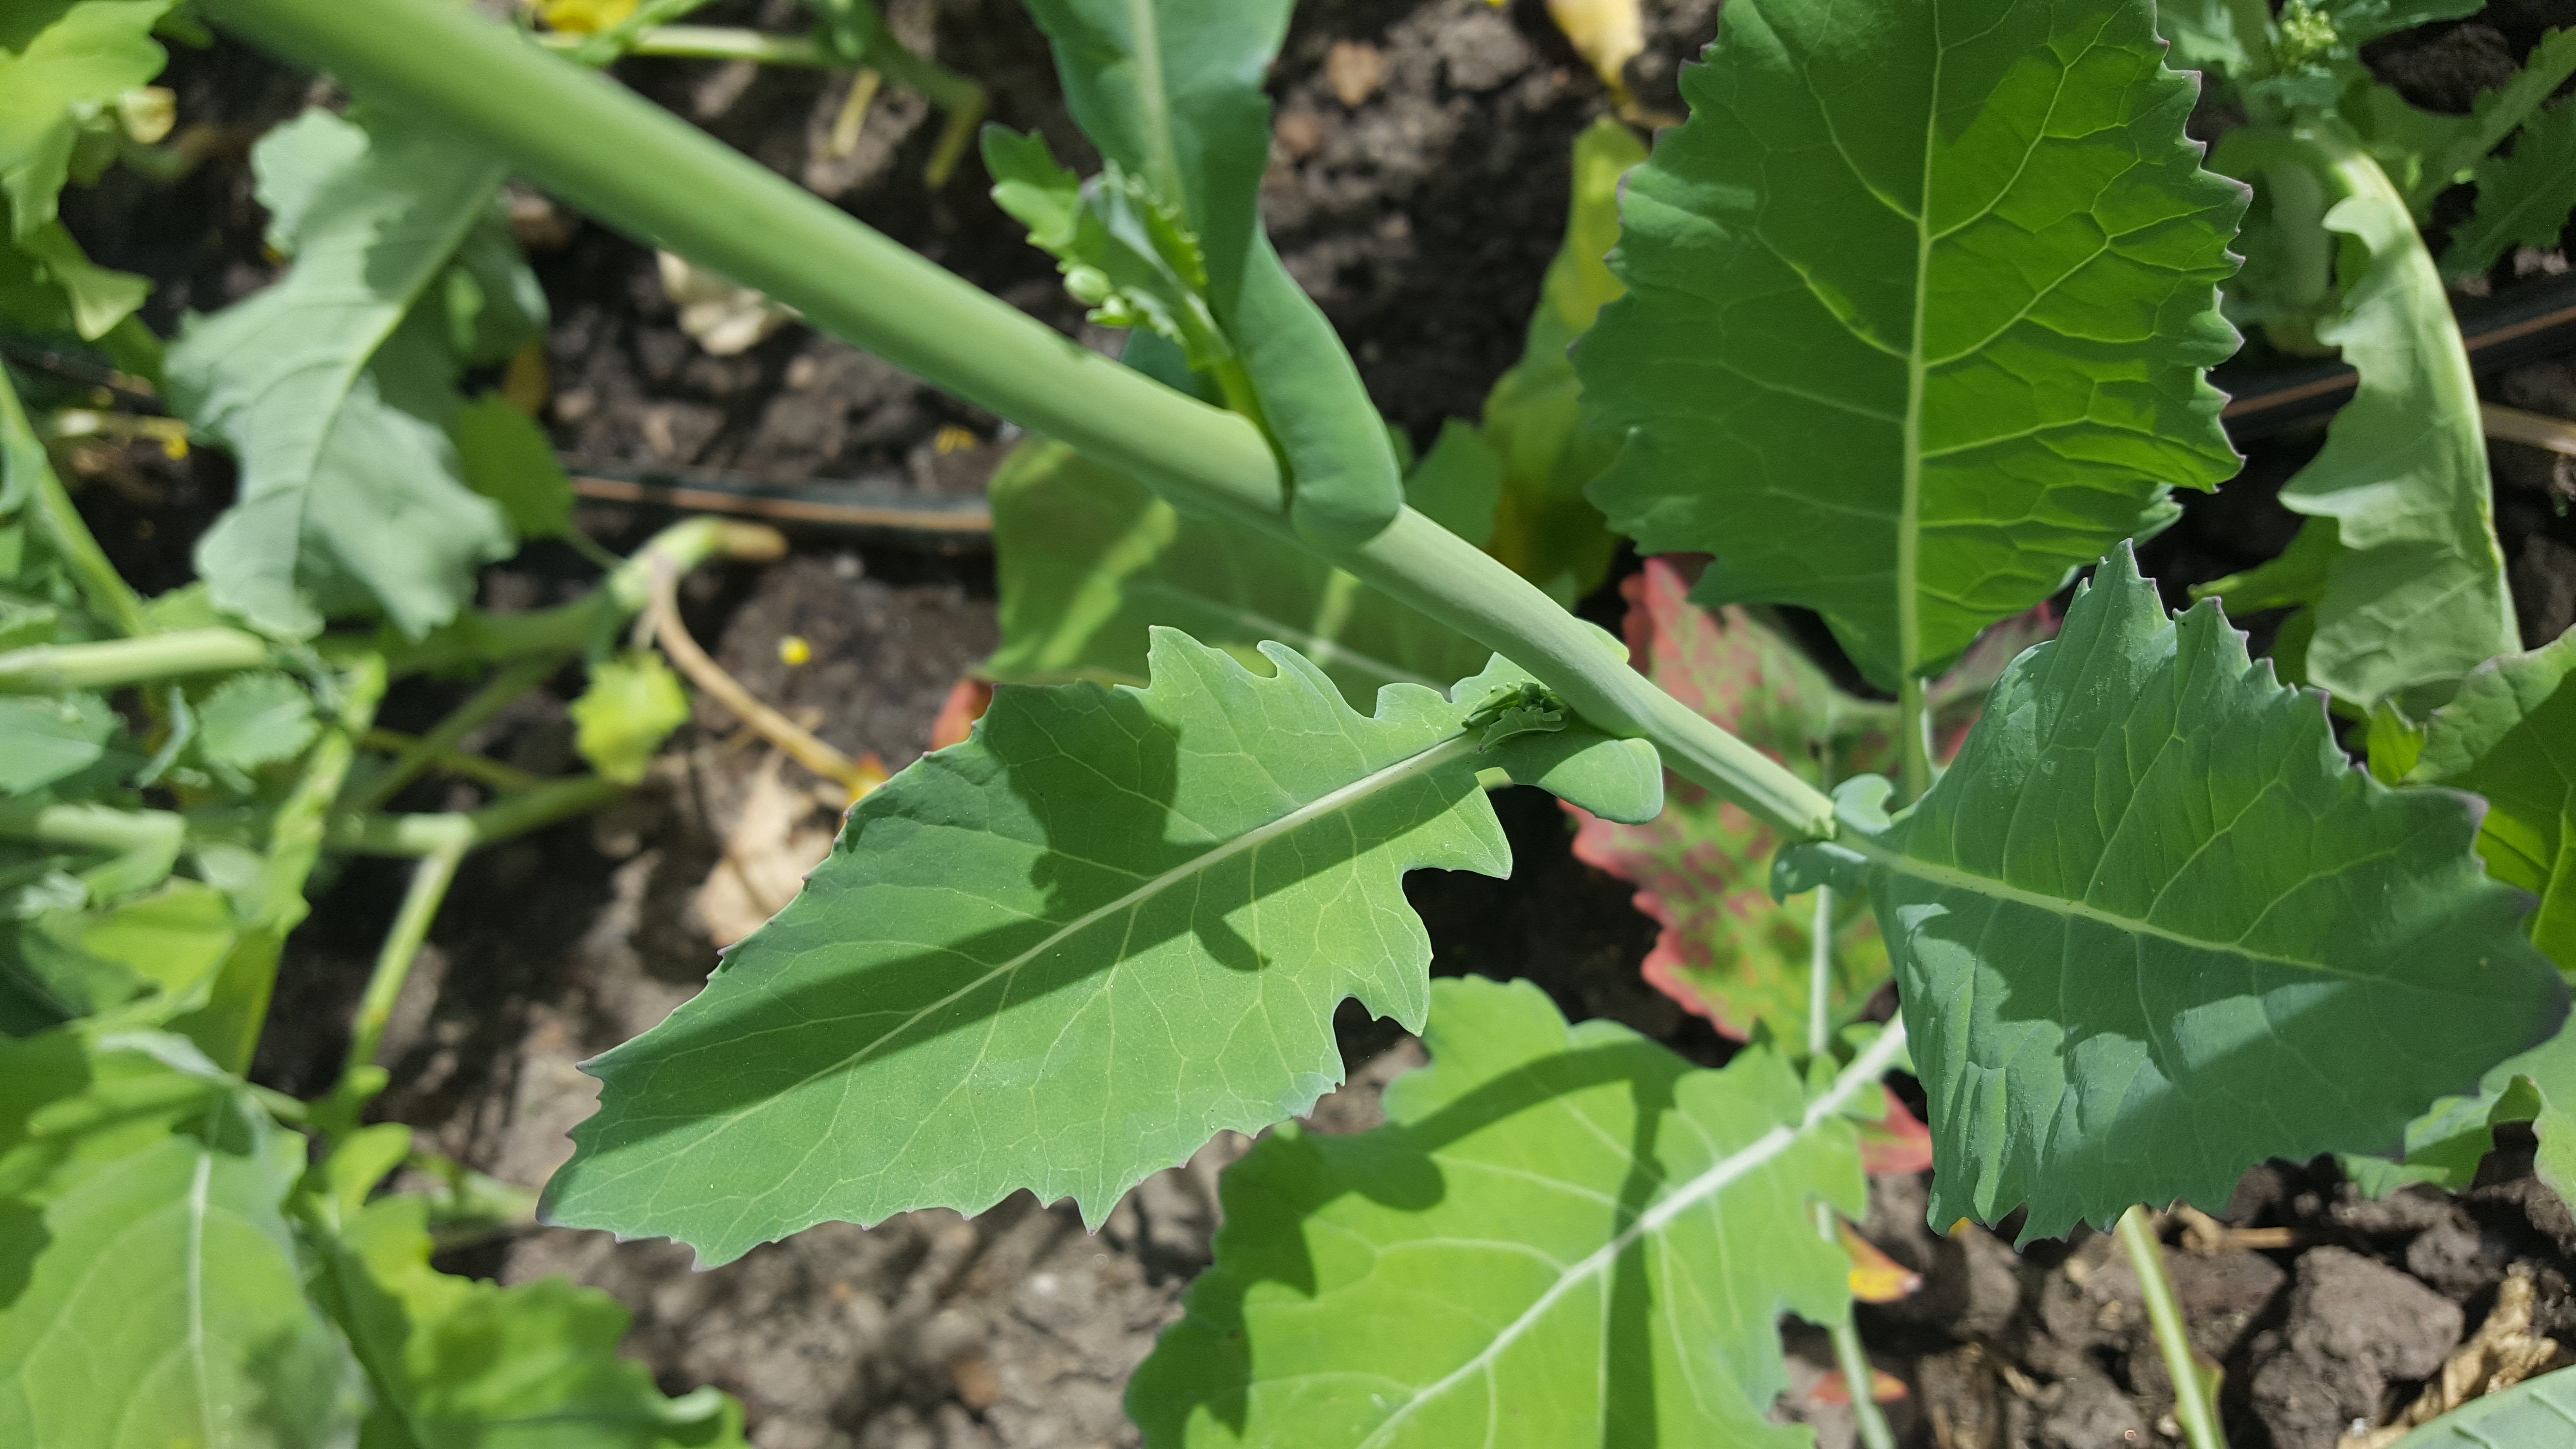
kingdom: Plantae
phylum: Tracheophyta
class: Magnoliopsida
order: Brassicales
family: Brassicaceae
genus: Brassica
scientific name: Brassica napus
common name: Rape
